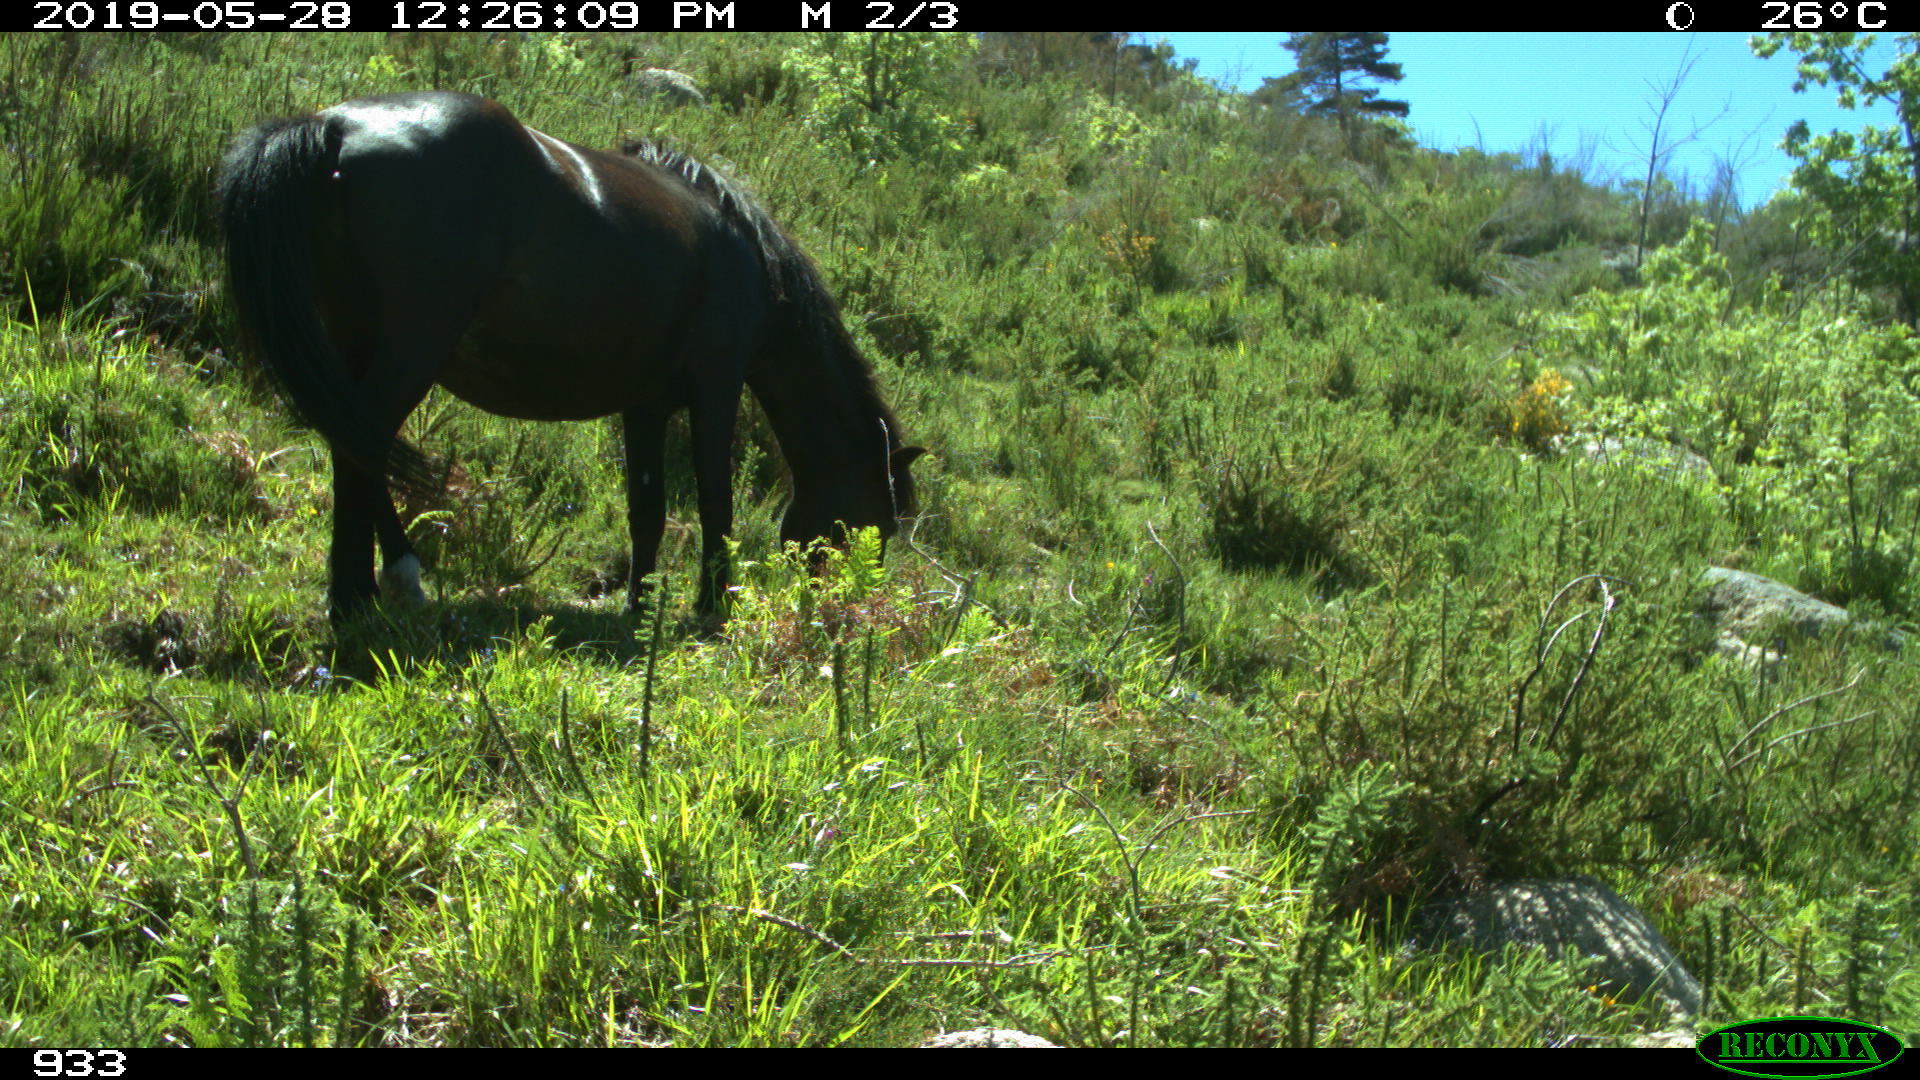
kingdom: Animalia
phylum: Chordata
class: Mammalia
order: Perissodactyla
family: Equidae
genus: Equus
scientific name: Equus caballus
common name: Horse
